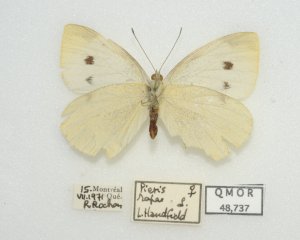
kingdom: Animalia
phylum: Arthropoda
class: Insecta
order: Lepidoptera
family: Pieridae
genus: Pieris
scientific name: Pieris rapae
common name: Cabbage White
